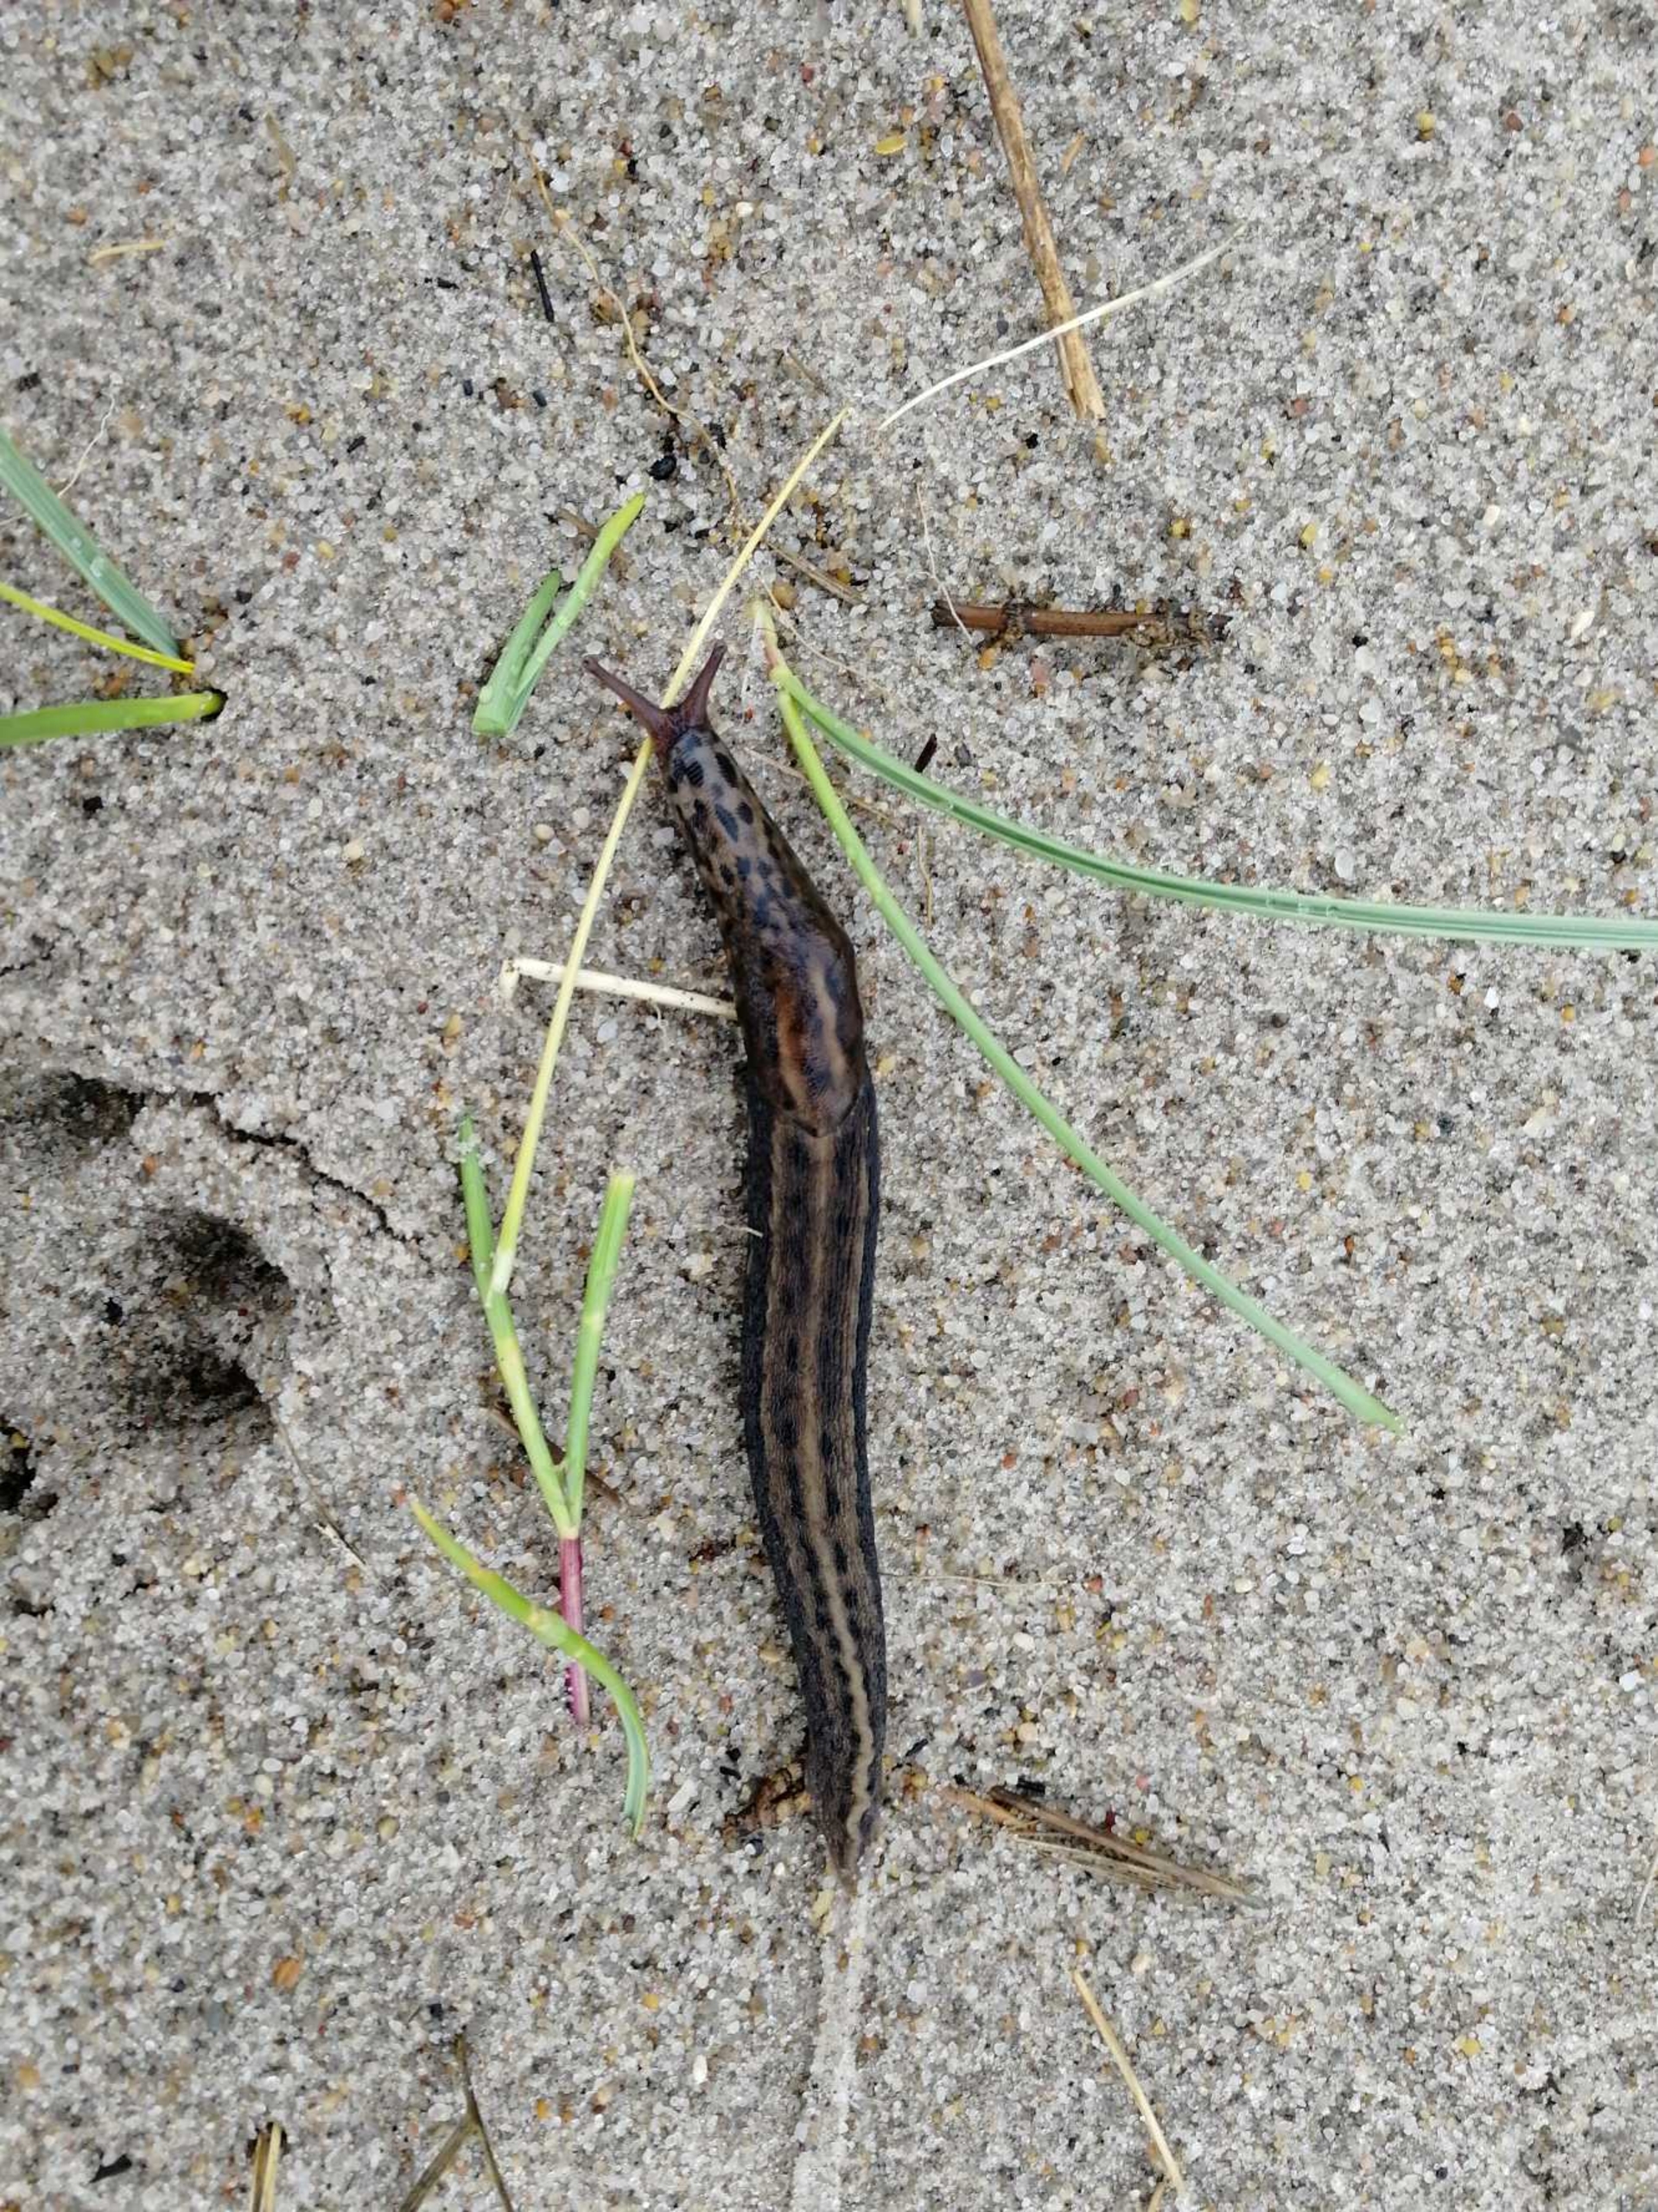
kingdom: Animalia
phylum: Mollusca
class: Gastropoda
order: Stylommatophora
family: Limacidae
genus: Limax
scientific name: Limax maximus
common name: Pantersnegl
